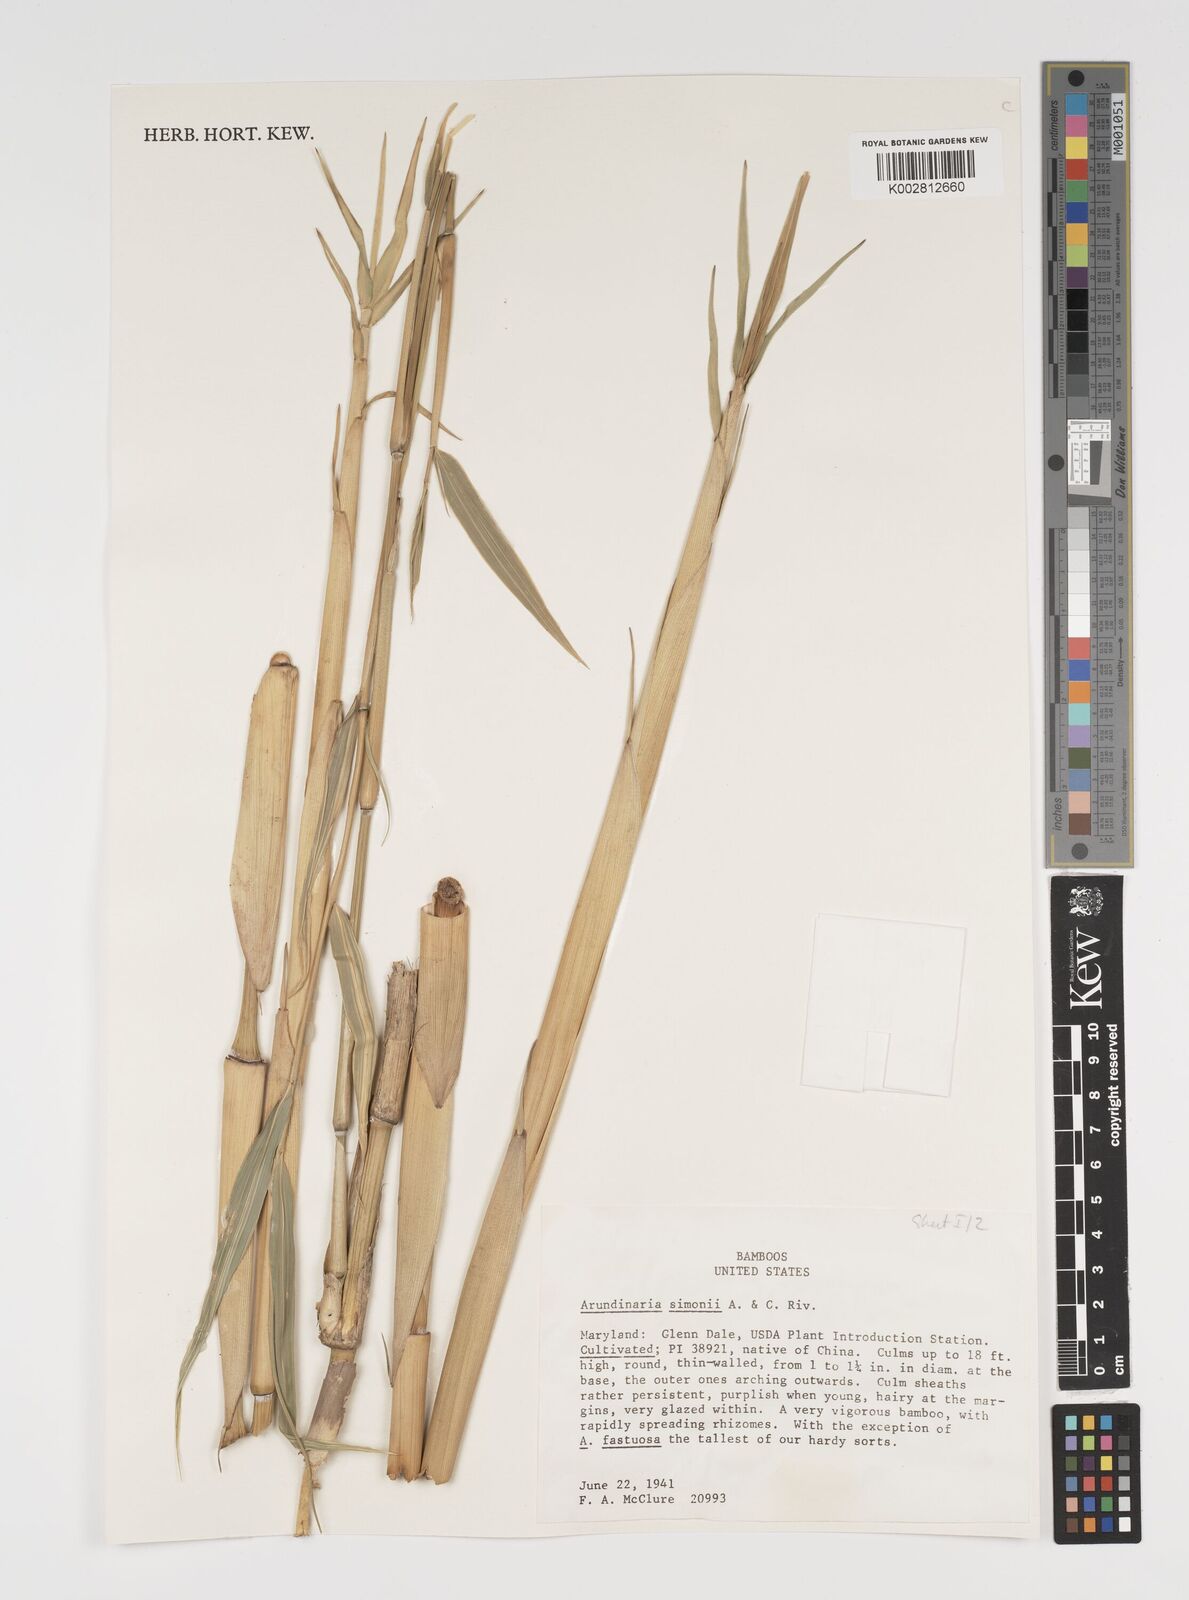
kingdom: Plantae
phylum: Tracheophyta
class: Liliopsida
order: Poales
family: Poaceae
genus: Pleioblastus
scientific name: Pleioblastus simonii
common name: Simon bamboo
